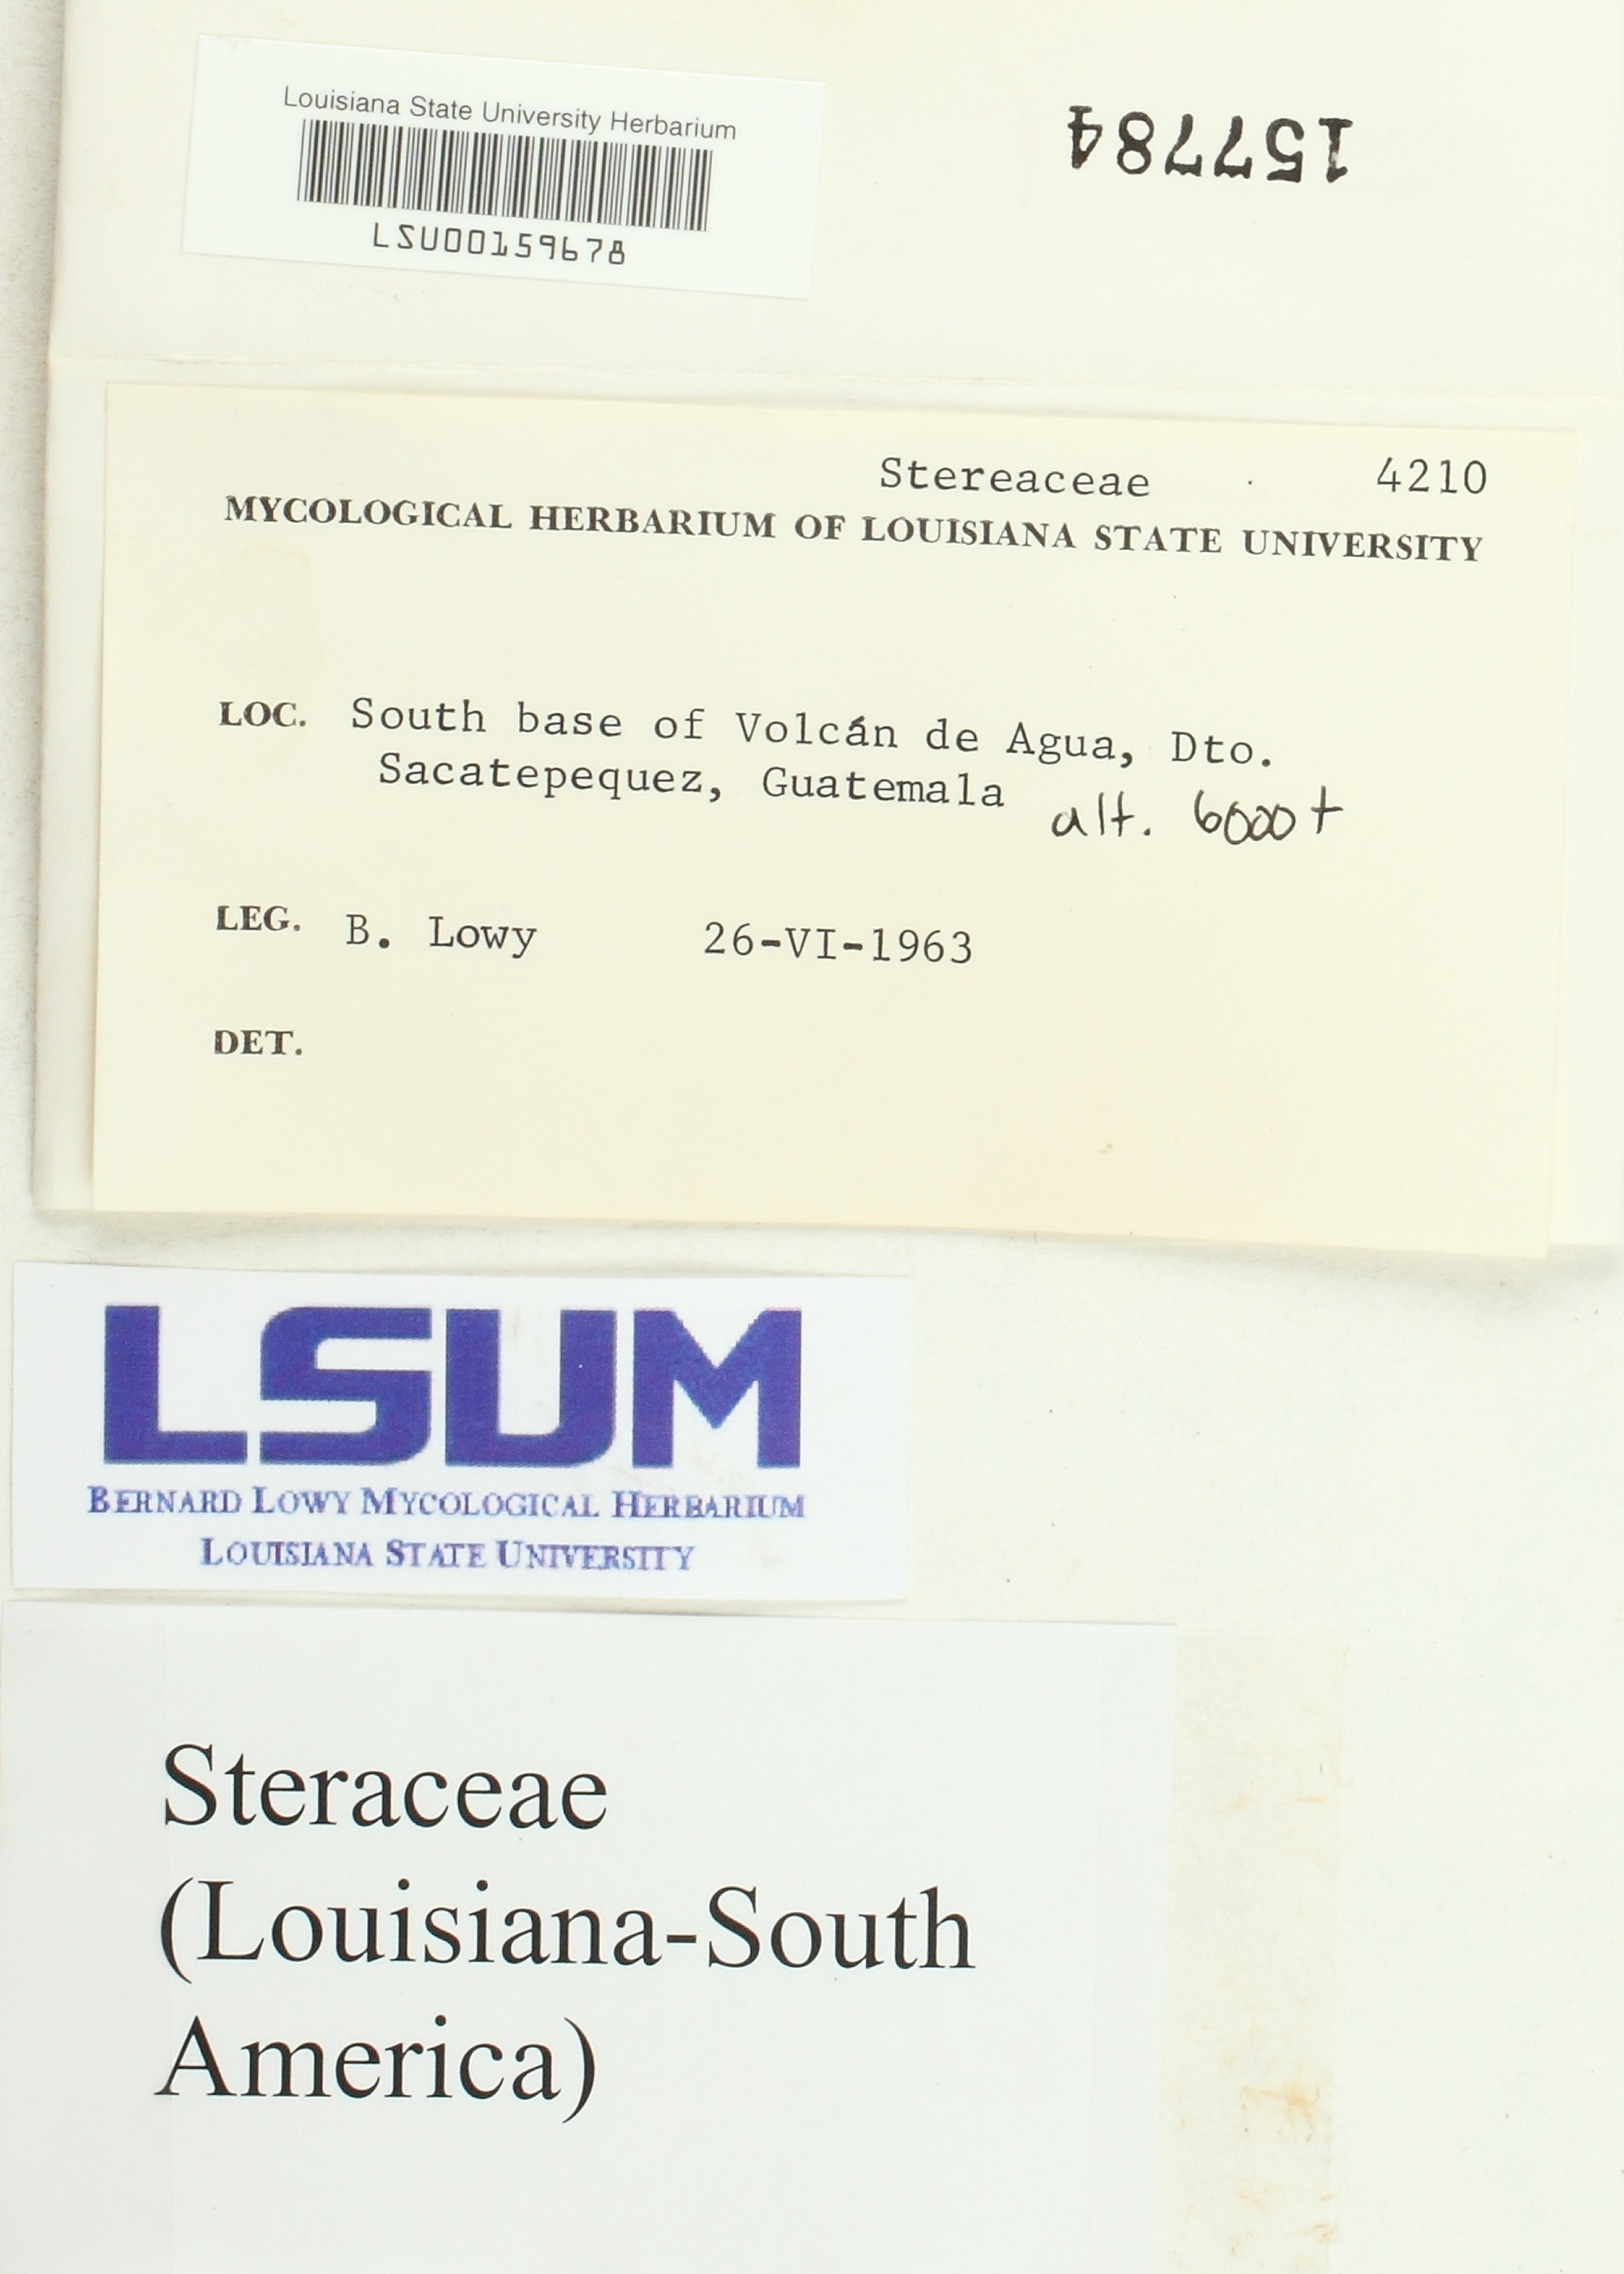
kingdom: Fungi
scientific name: Fungi
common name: Fungi
